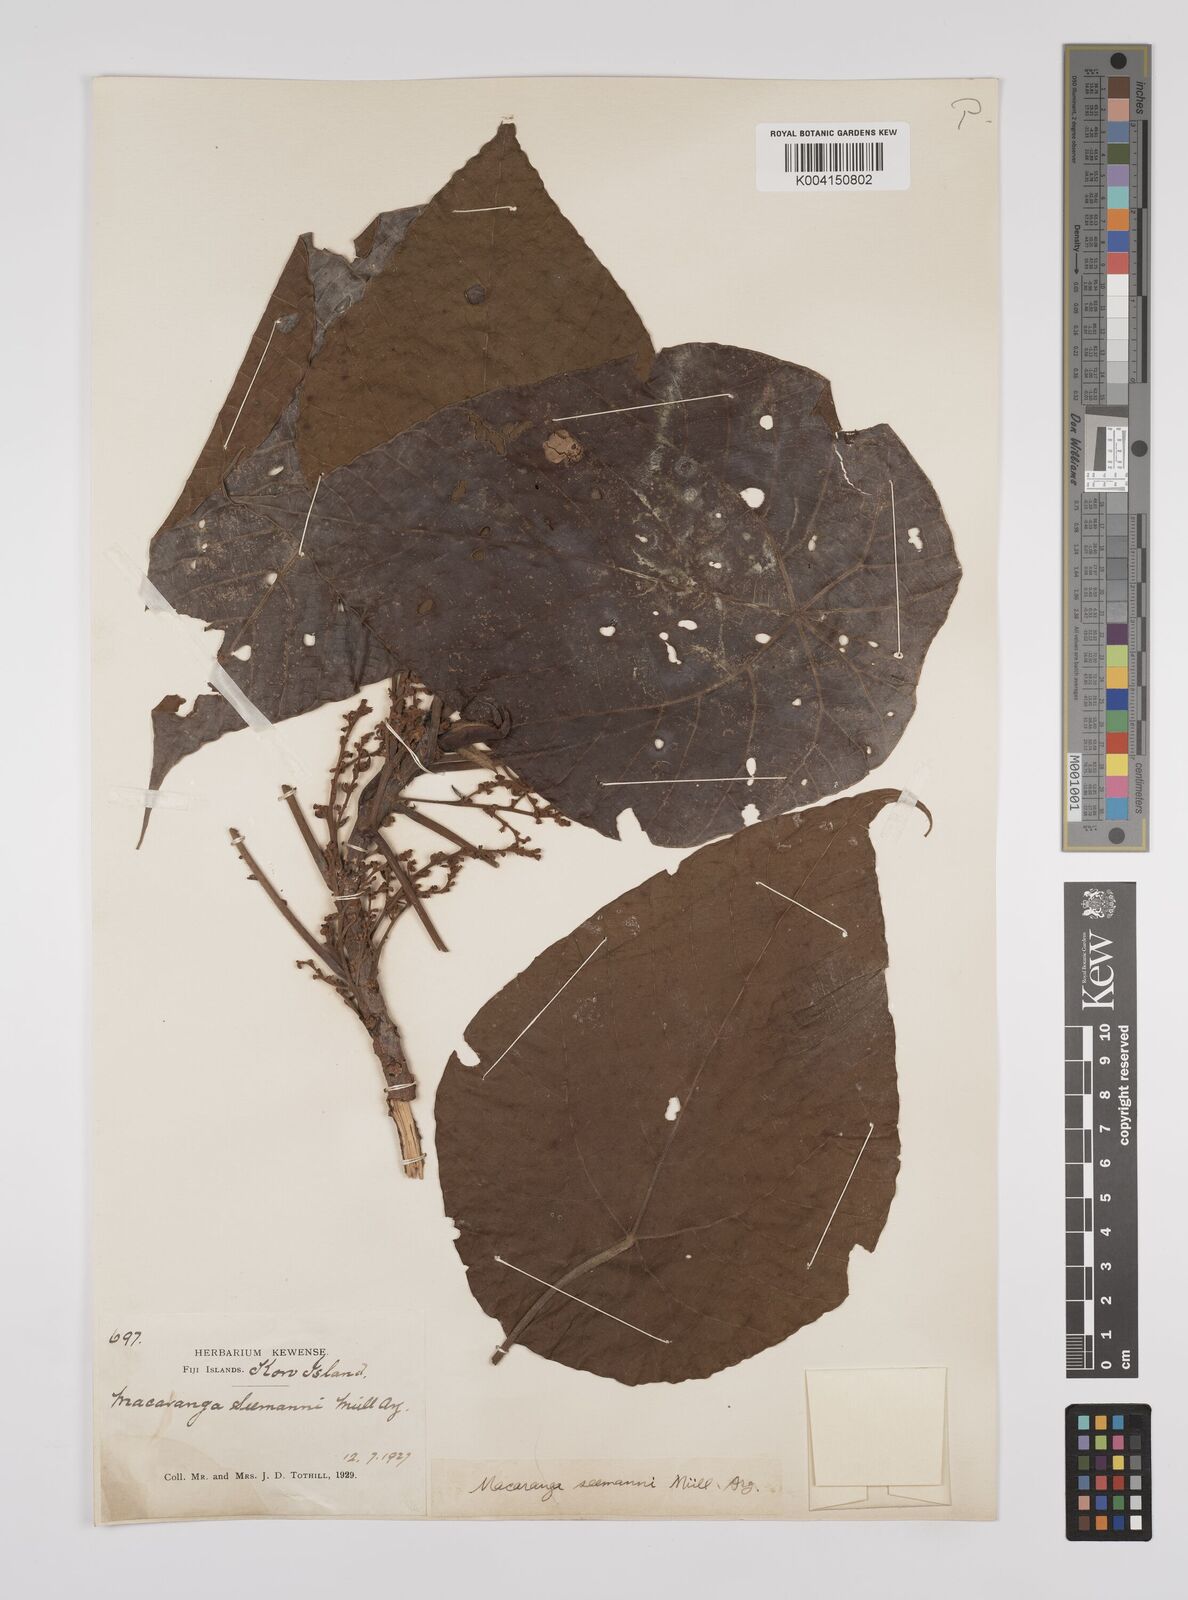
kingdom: Plantae
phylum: Tracheophyta
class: Magnoliopsida
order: Malpighiales
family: Euphorbiaceae
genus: Macaranga
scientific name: Macaranga seemannii
